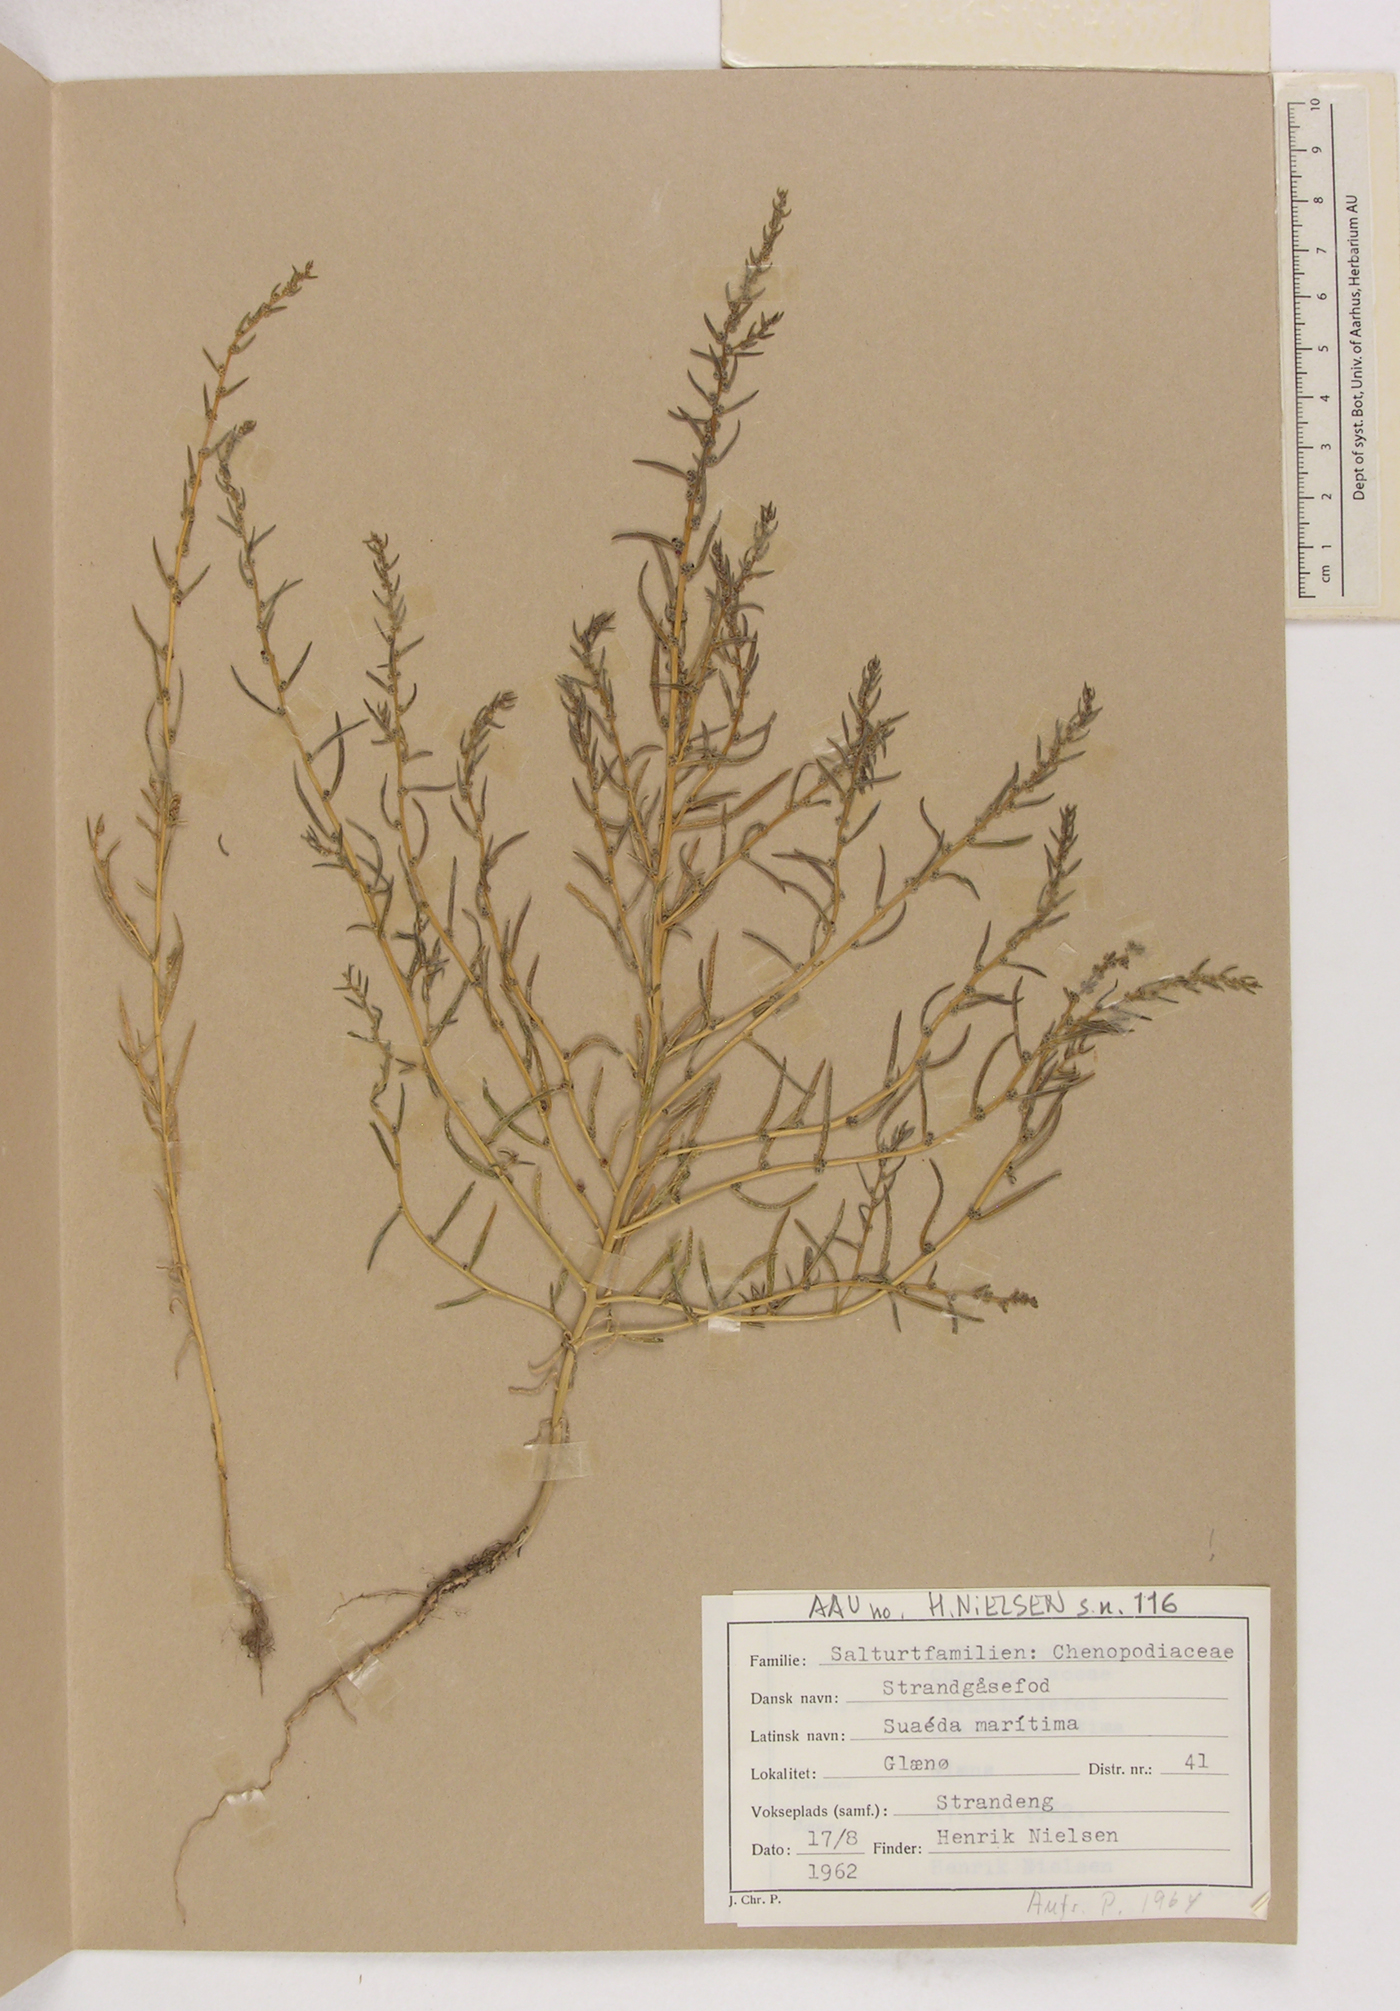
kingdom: Plantae
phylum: Tracheophyta
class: Magnoliopsida
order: Caryophyllales
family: Amaranthaceae
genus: Suaeda
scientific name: Suaeda maritima
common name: Annual sea-blite
